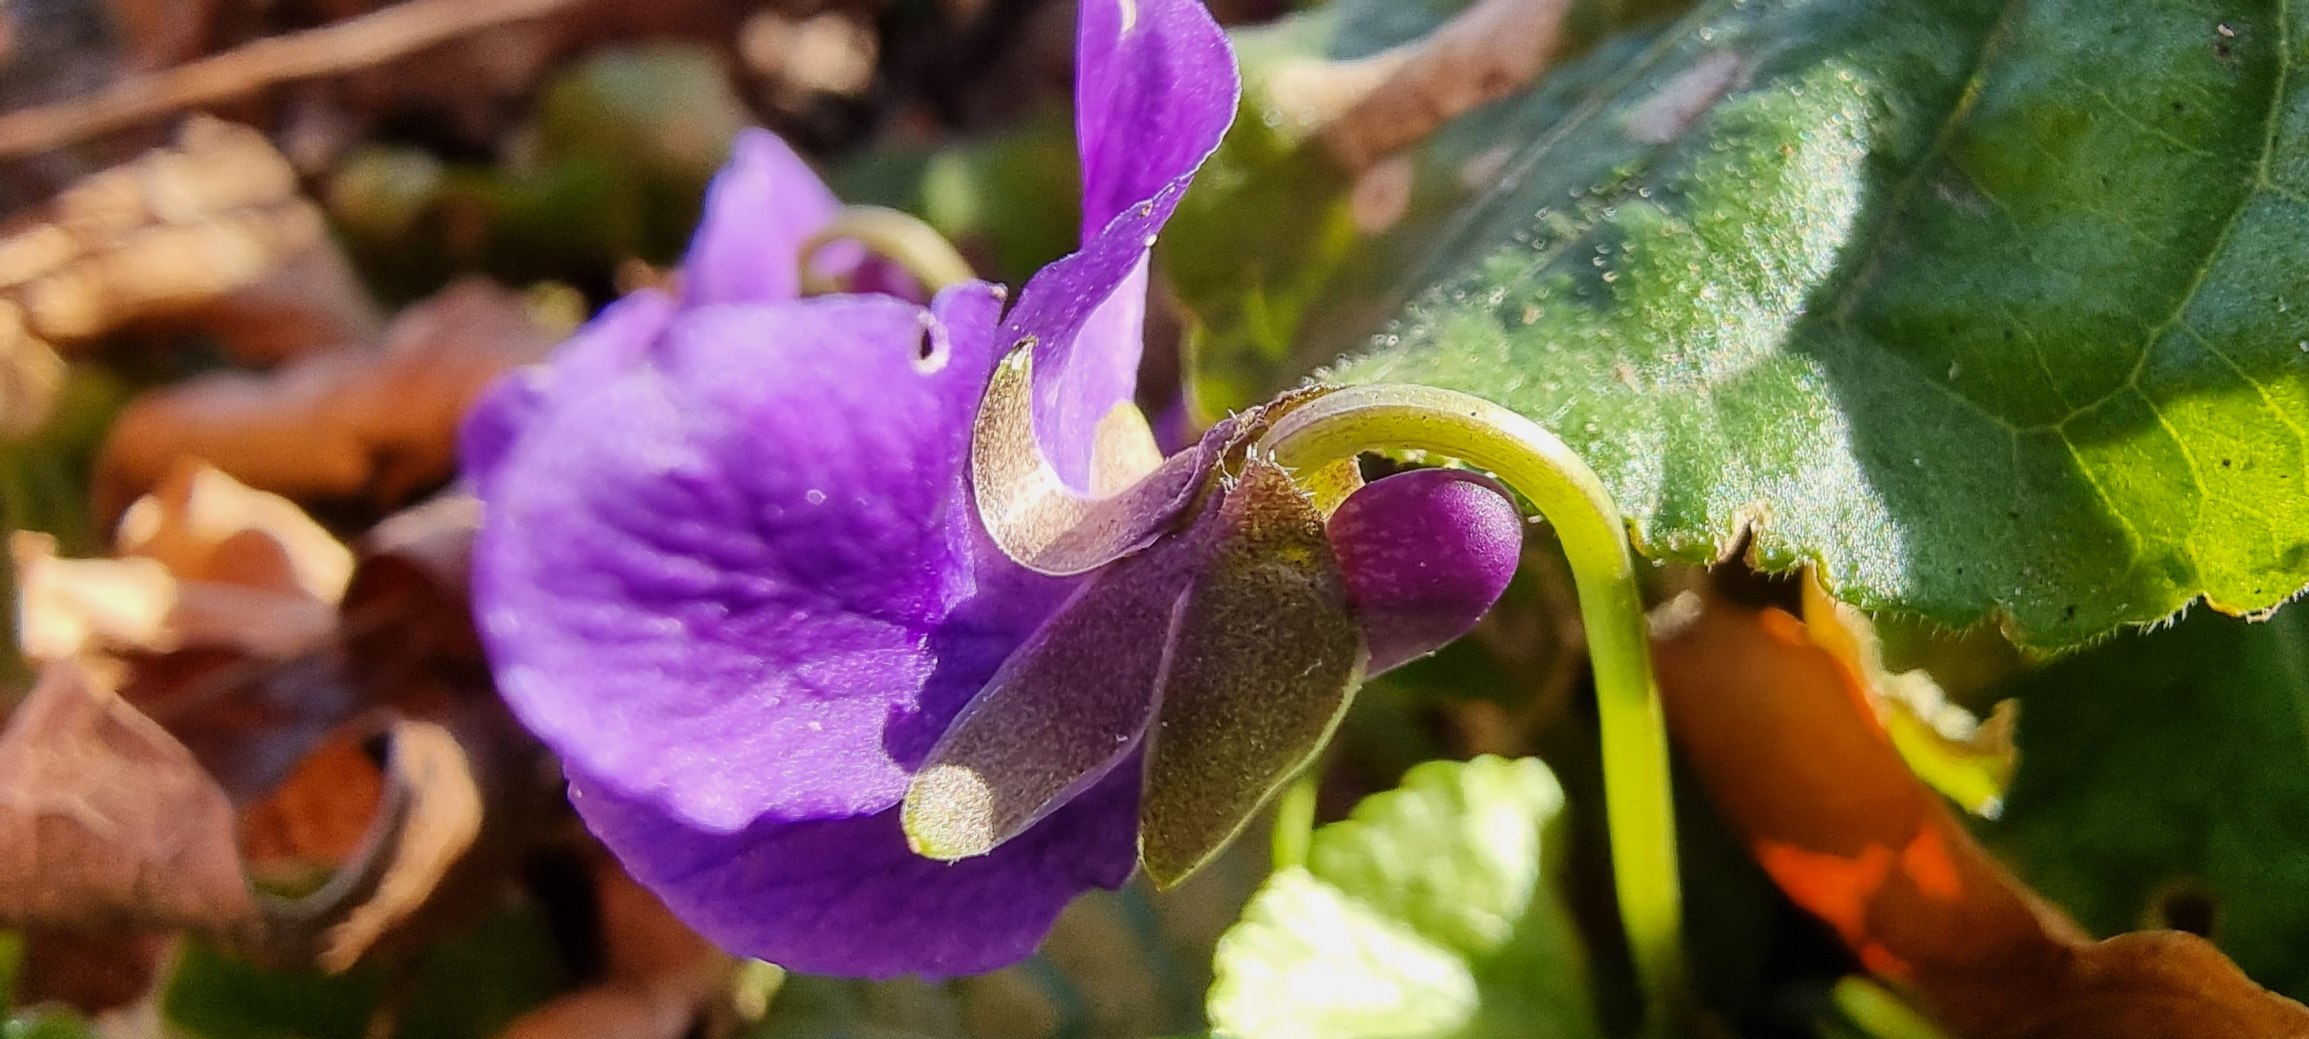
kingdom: Plantae
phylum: Tracheophyta
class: Magnoliopsida
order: Malpighiales
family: Violaceae
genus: Viola
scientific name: Viola odorata
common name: Marts-viol
